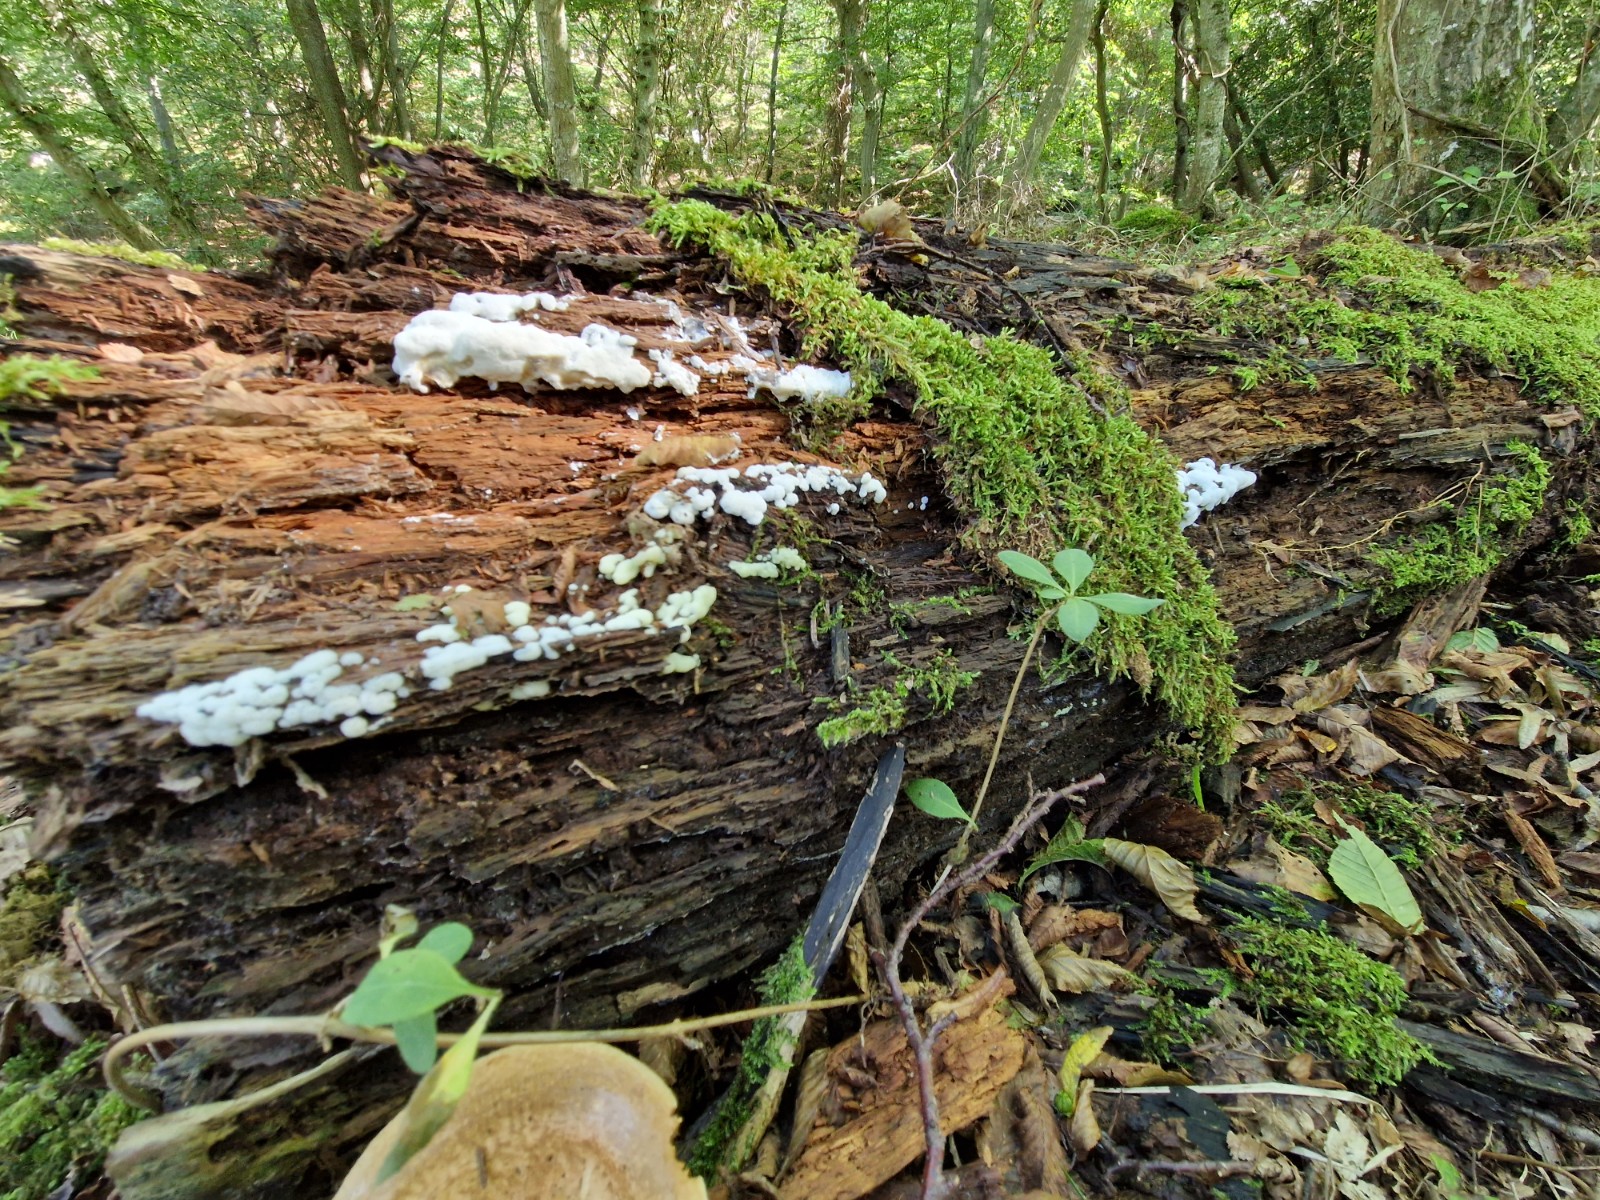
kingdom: Protozoa
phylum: Mycetozoa
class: Protosteliomycetes
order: Ceratiomyxales
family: Ceratiomyxaceae
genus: Ceratiomyxa
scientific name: Ceratiomyxa fruticulosa
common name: Honeycomb coral slime mold
